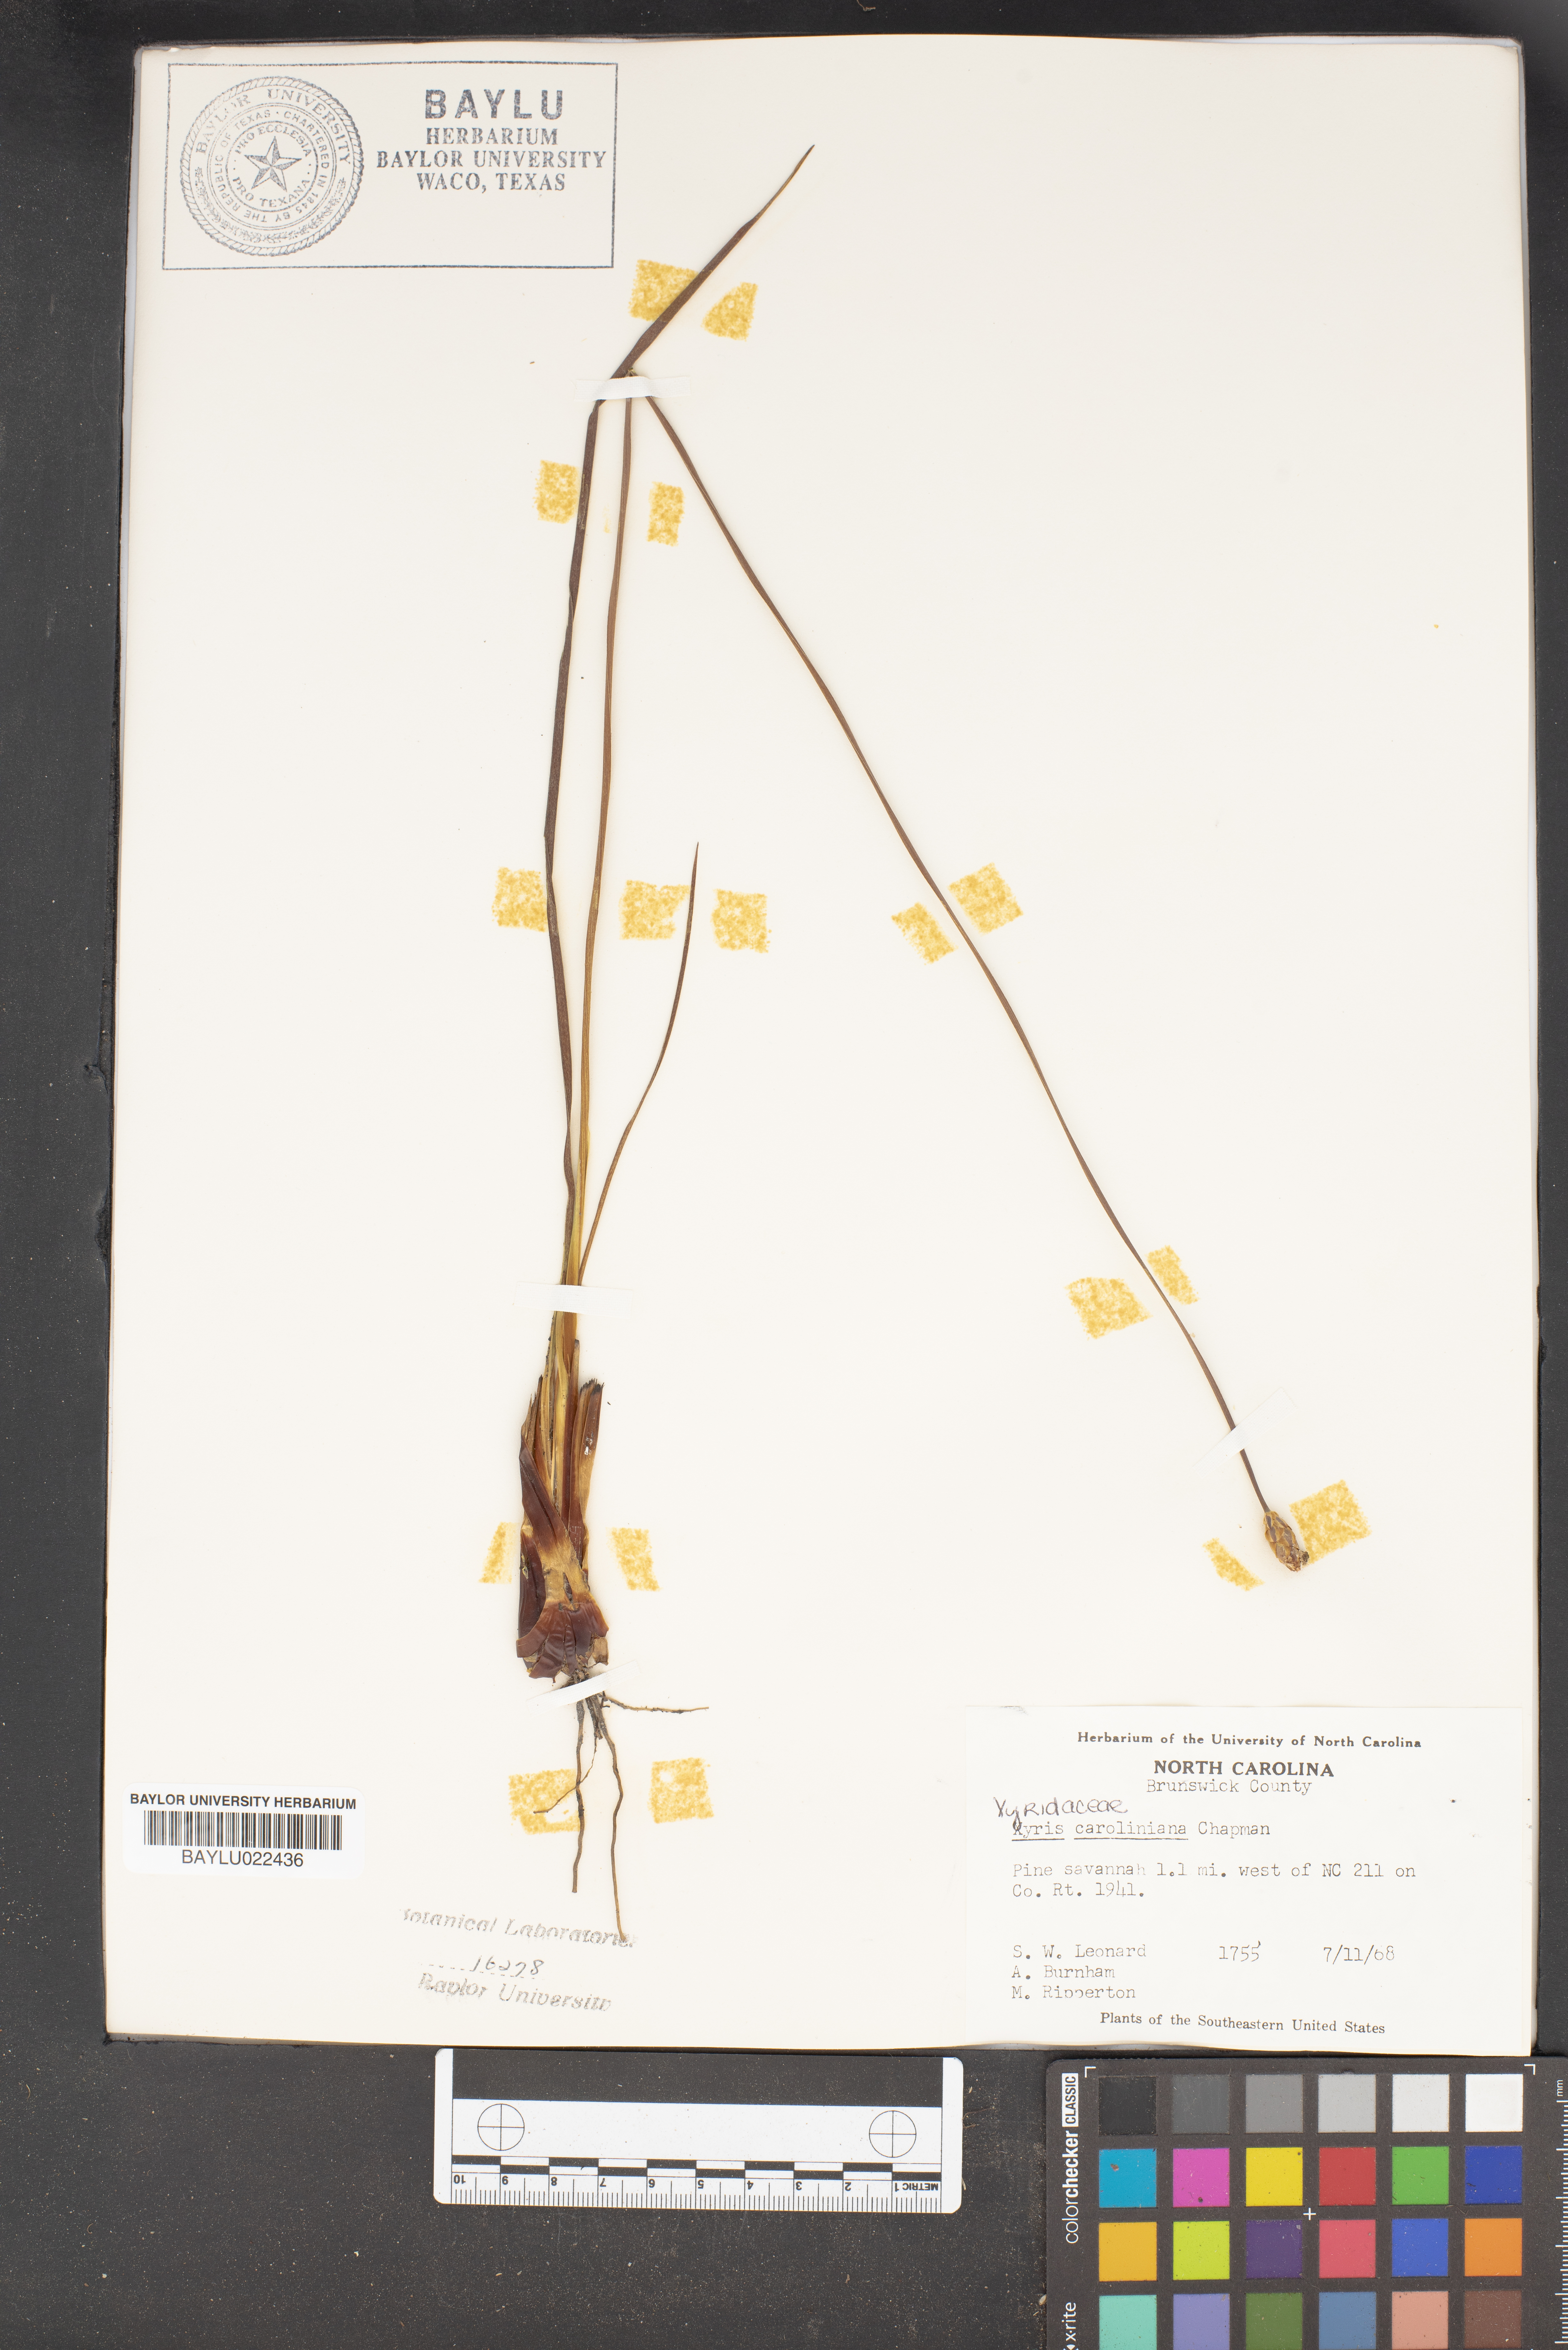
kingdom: Plantae
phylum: Tracheophyta
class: Liliopsida
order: Poales
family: Xyridaceae
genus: Xyris
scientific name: Xyris caroliniana
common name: Carolina yellow-eyed-grass
